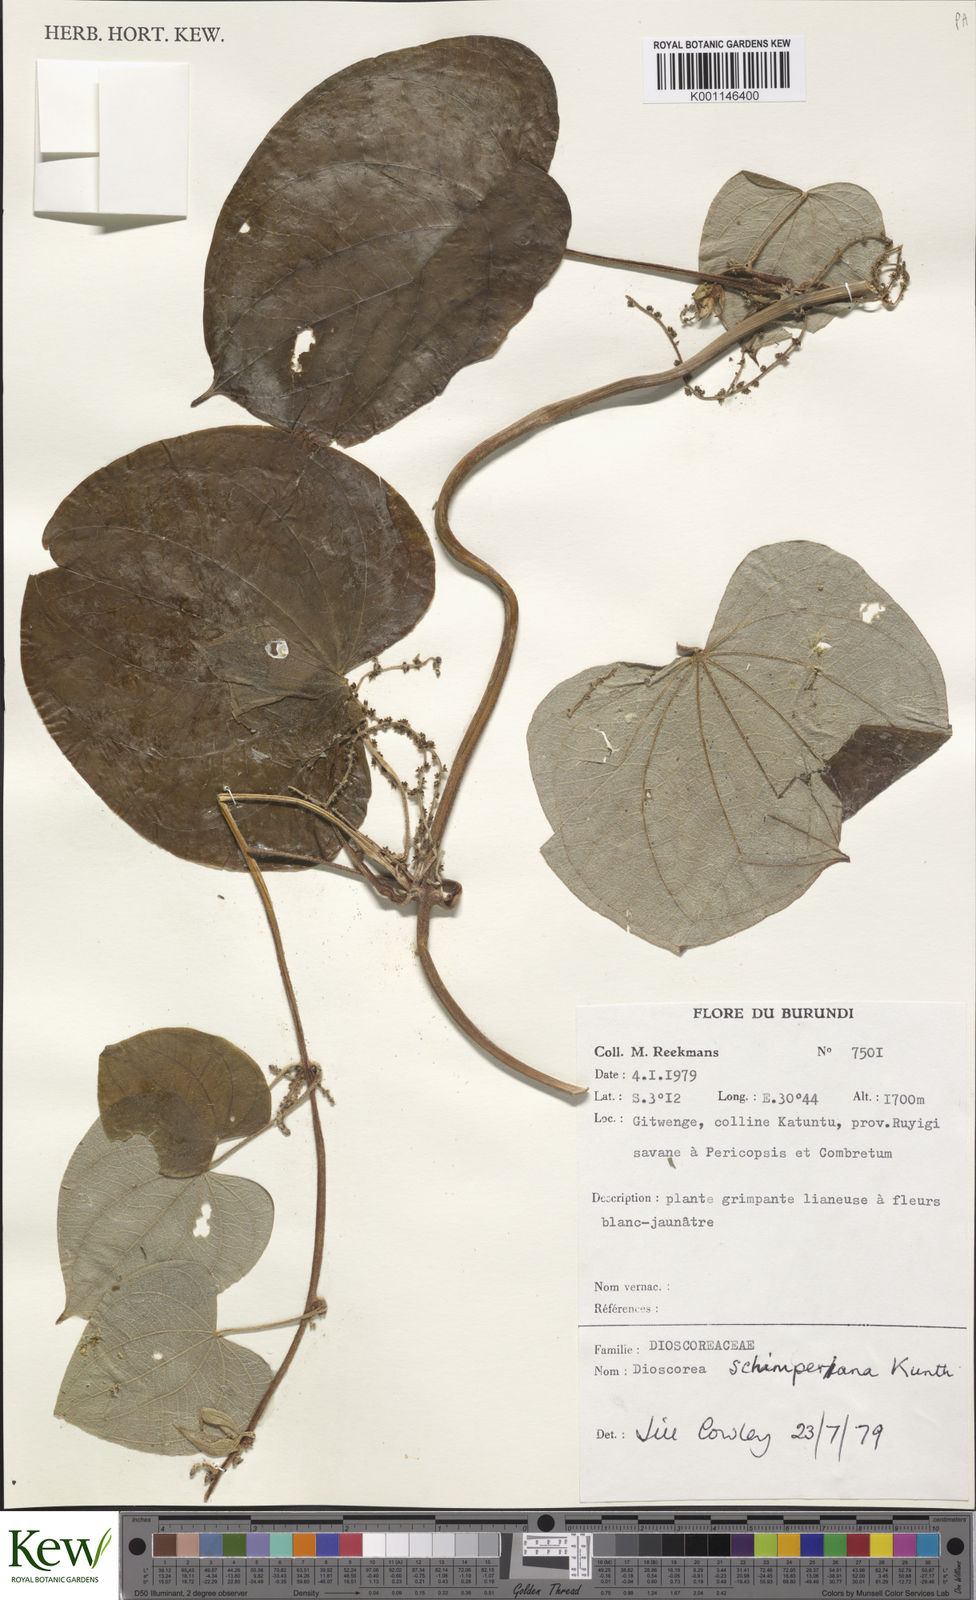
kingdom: Plantae
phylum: Tracheophyta
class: Liliopsida
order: Dioscoreales
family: Dioscoreaceae
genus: Dioscorea
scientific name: Dioscorea schimperiana
